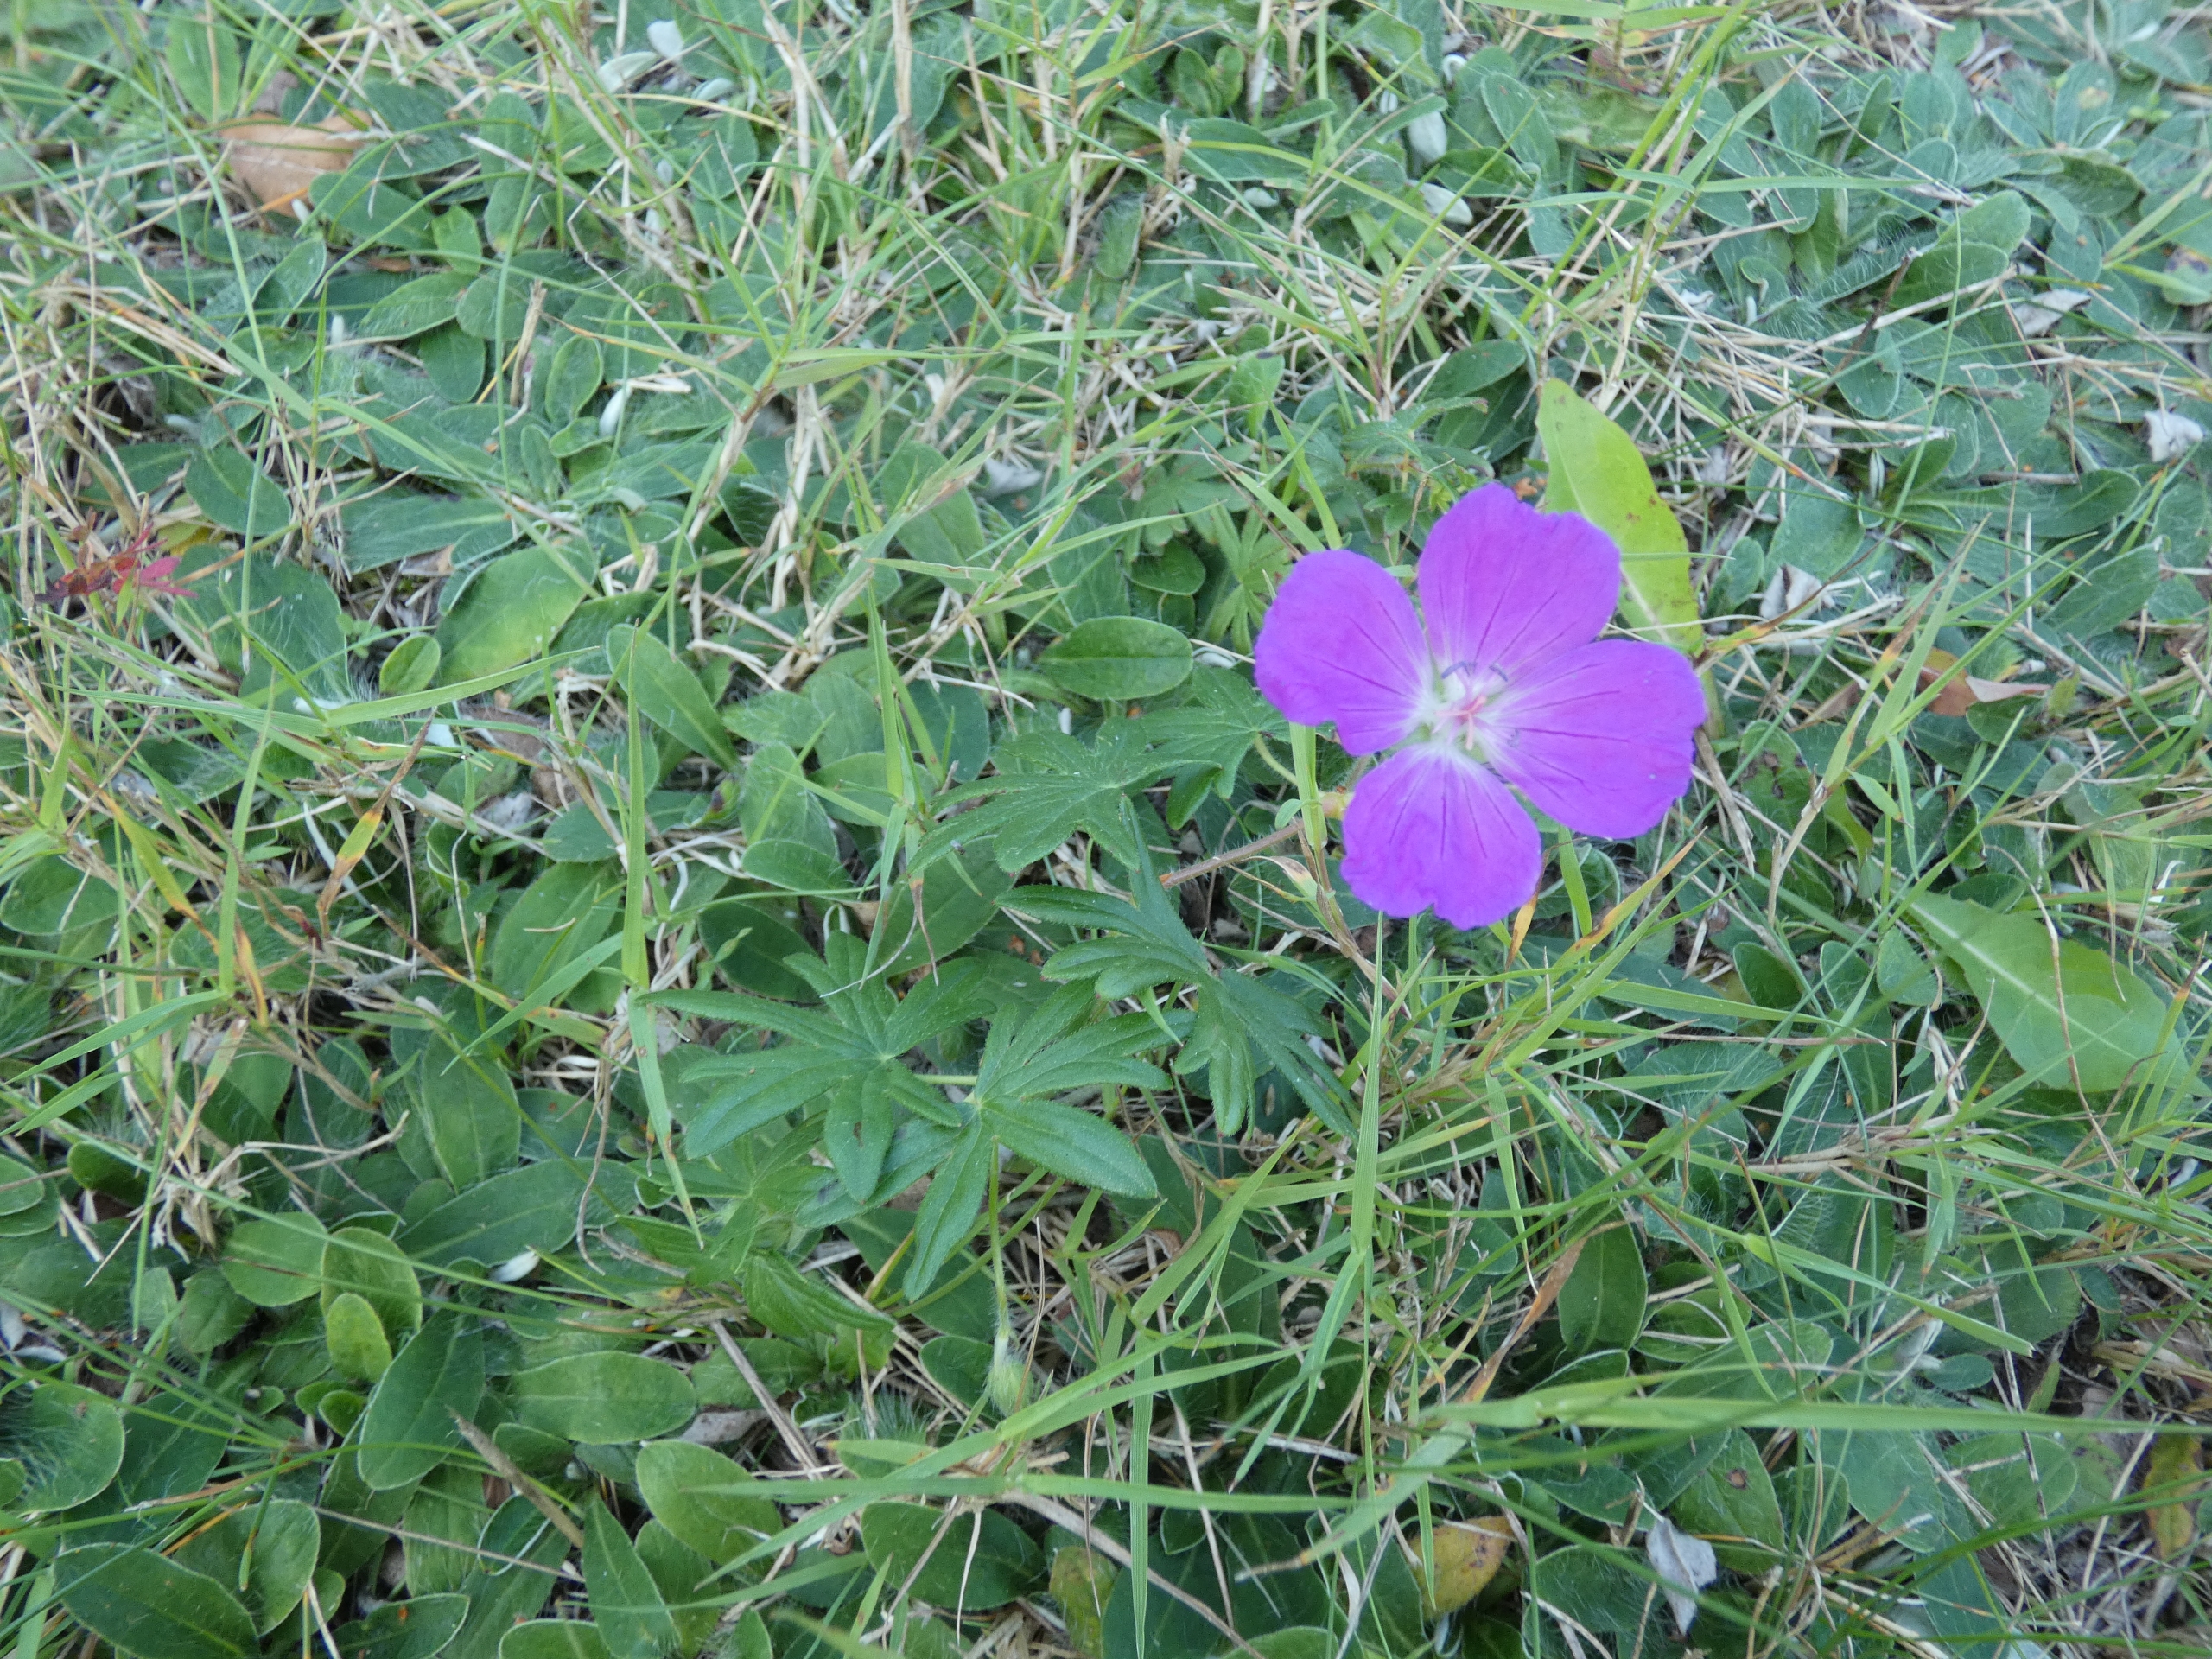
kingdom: Plantae
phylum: Tracheophyta
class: Magnoliopsida
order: Geraniales
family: Geraniaceae
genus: Geranium
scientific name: Geranium sanguineum
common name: Blodrød storkenæb
